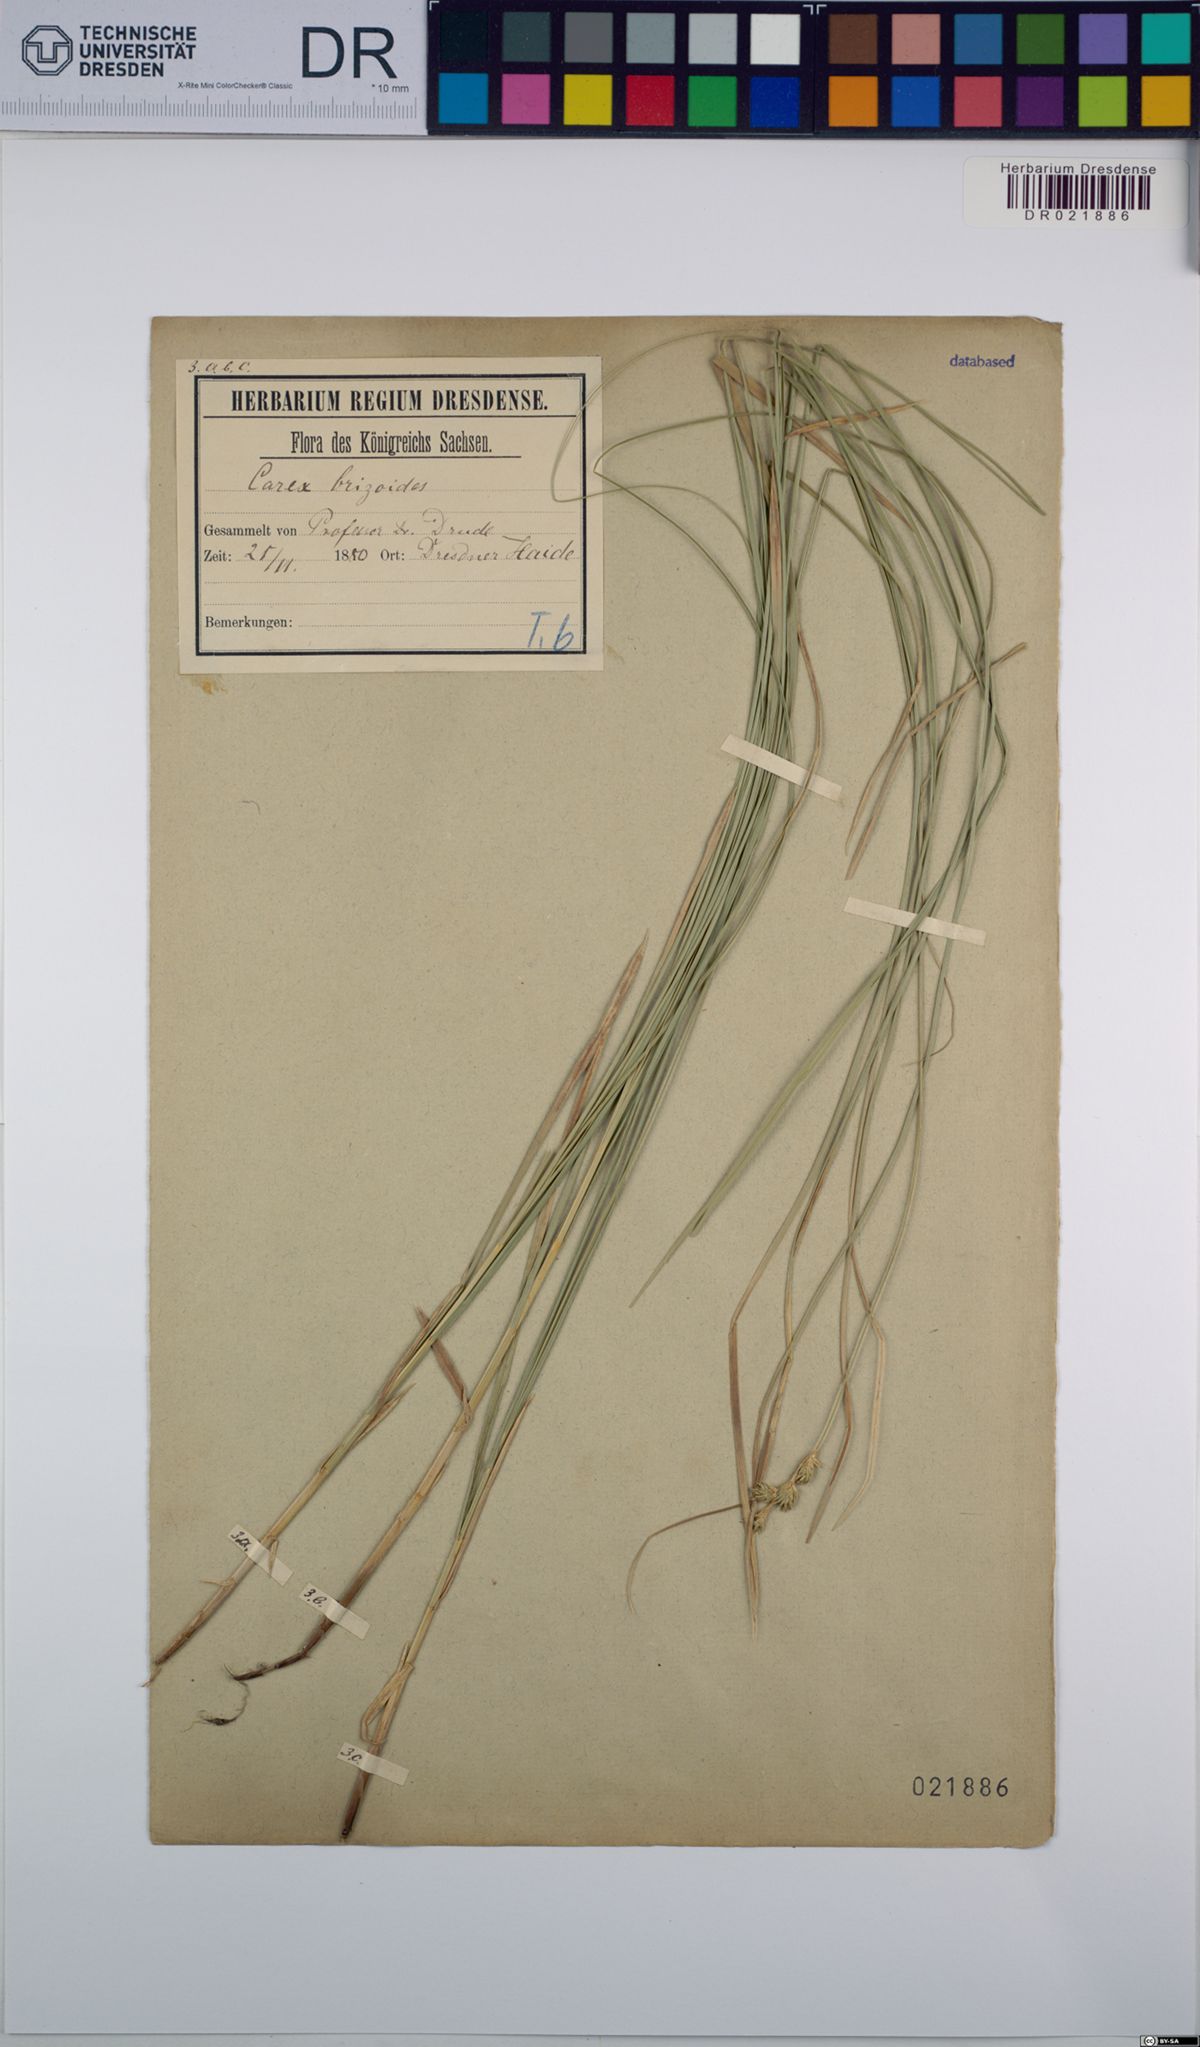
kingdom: Plantae
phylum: Tracheophyta
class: Liliopsida
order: Poales
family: Cyperaceae
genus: Carex
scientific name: Carex brizoides
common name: Quaking-grass sedge
